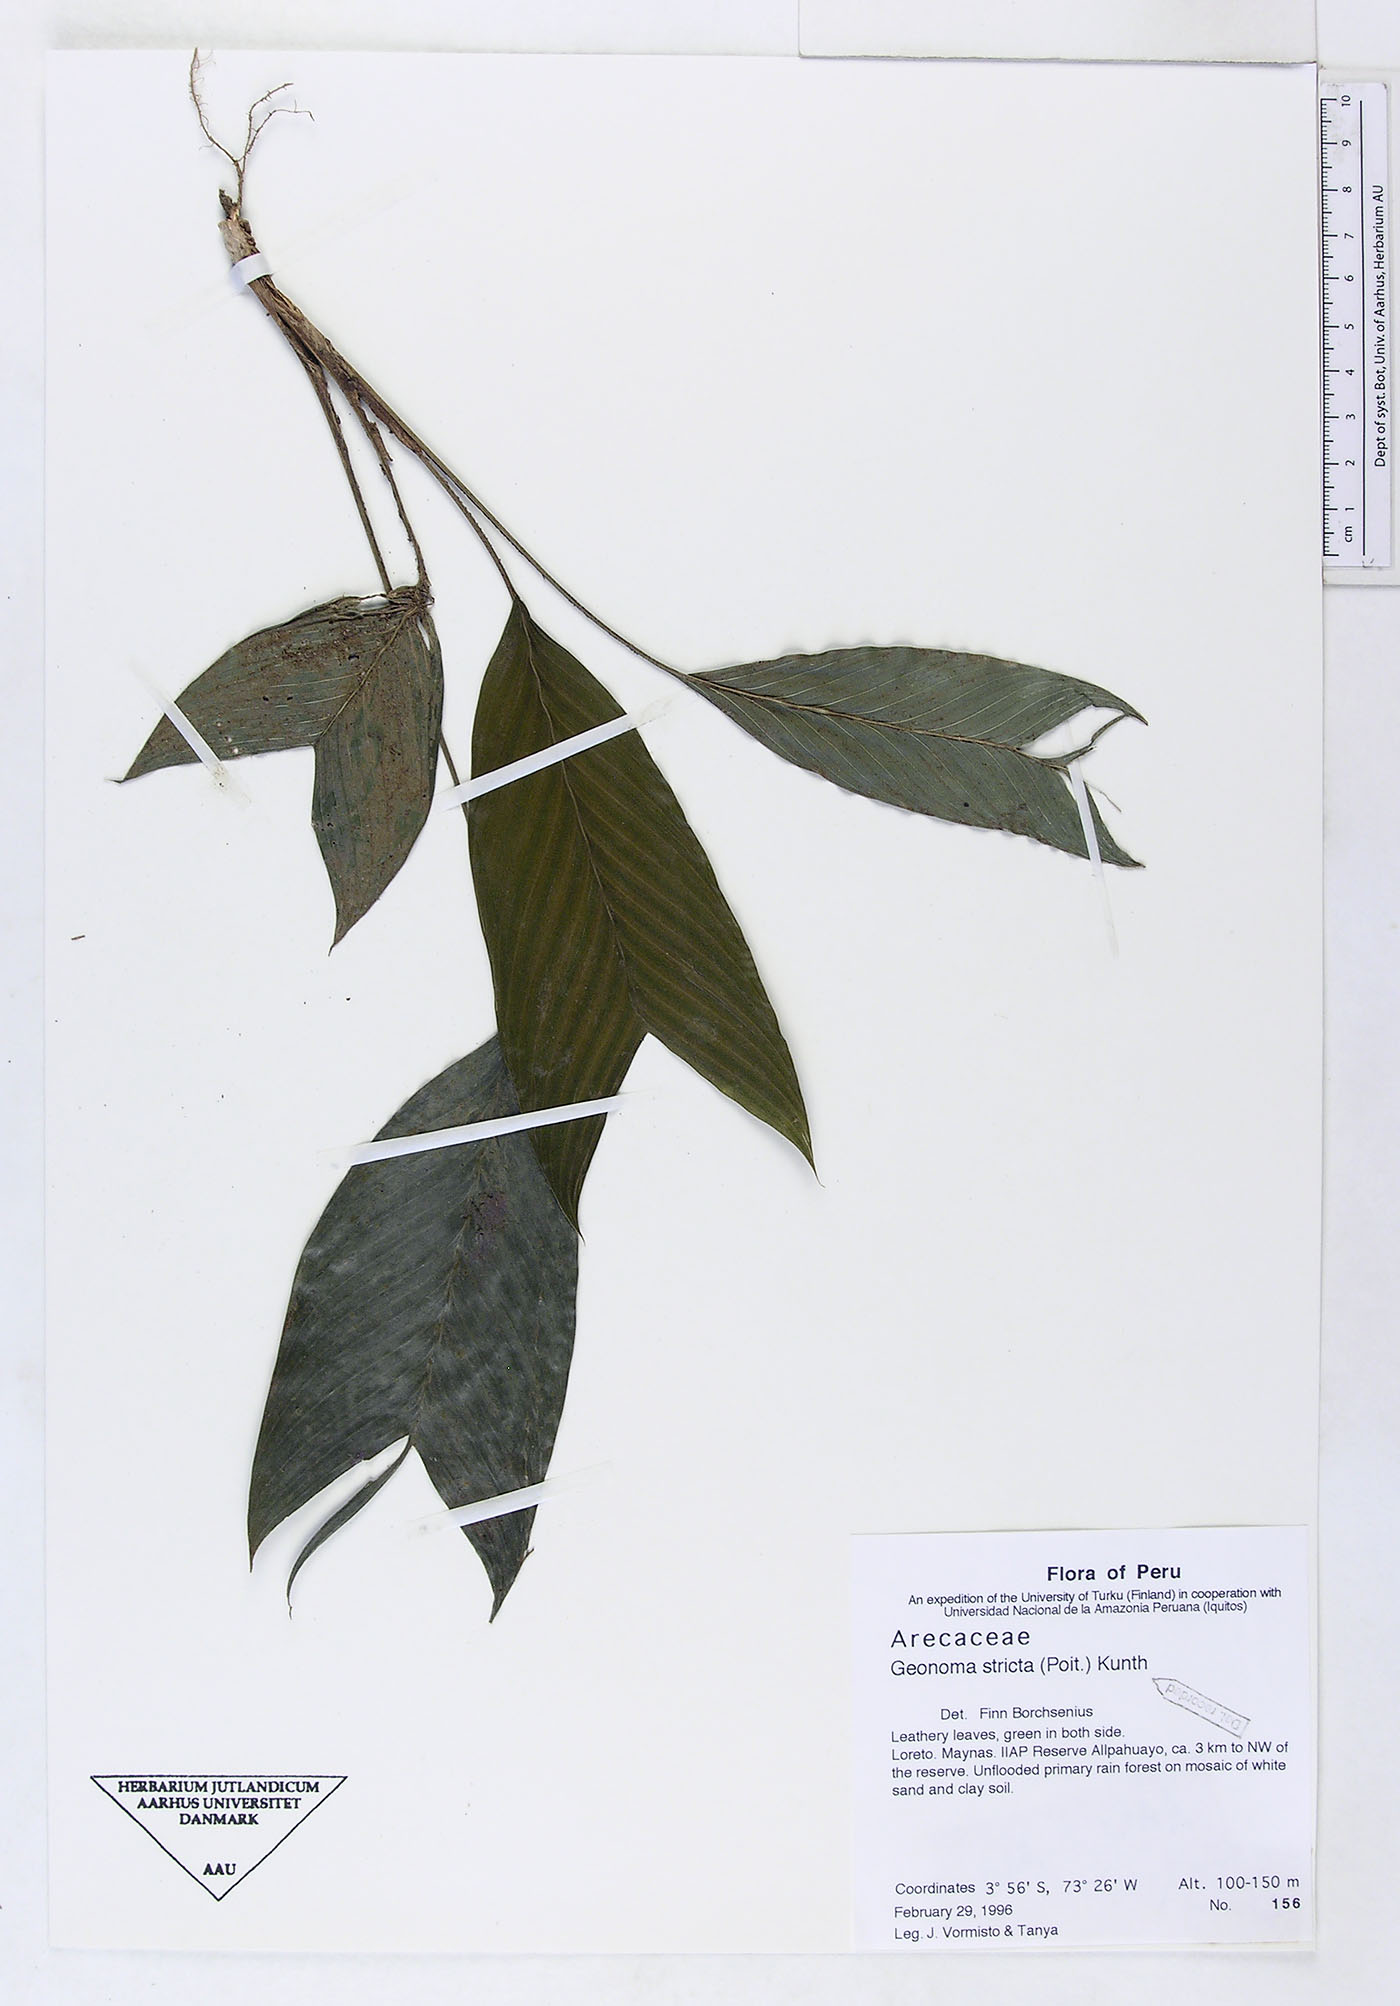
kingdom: Plantae
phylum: Tracheophyta
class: Liliopsida
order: Arecales
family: Arecaceae
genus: Geonoma
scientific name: Geonoma stricta
